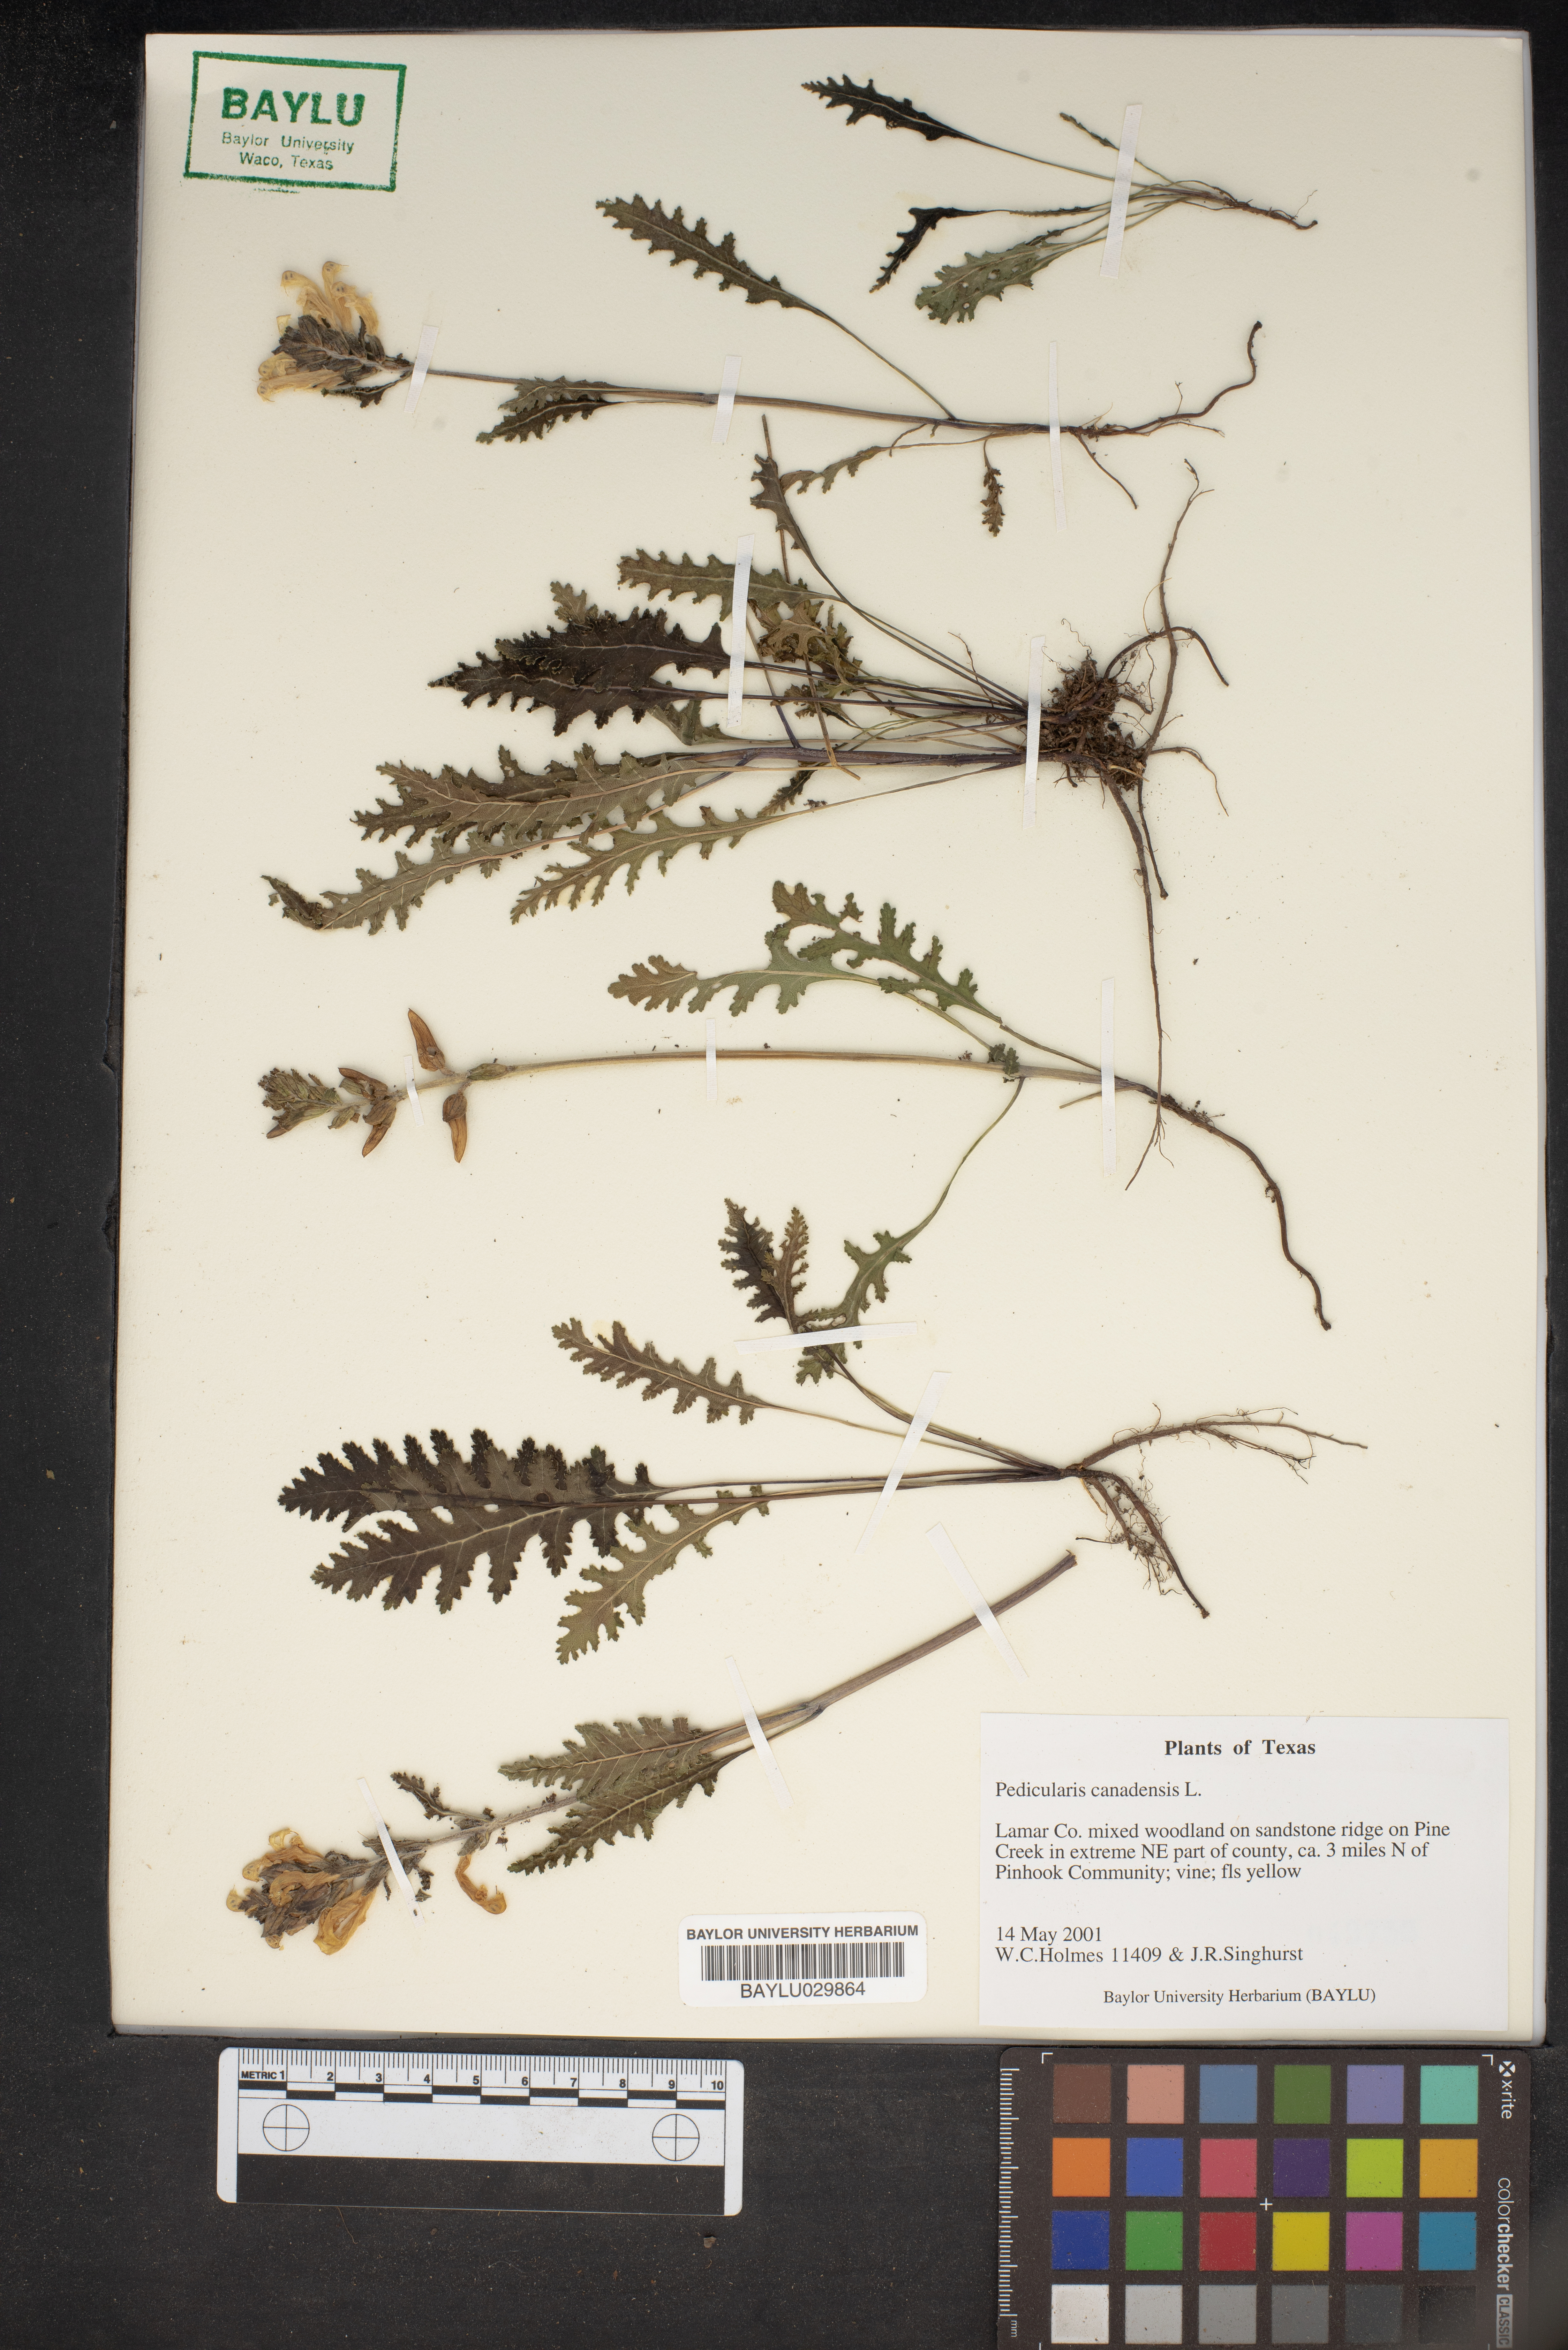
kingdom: Plantae
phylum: Tracheophyta
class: Magnoliopsida
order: Lamiales
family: Orobanchaceae
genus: Pedicularis
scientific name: Pedicularis canadensis
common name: Early lousewort
